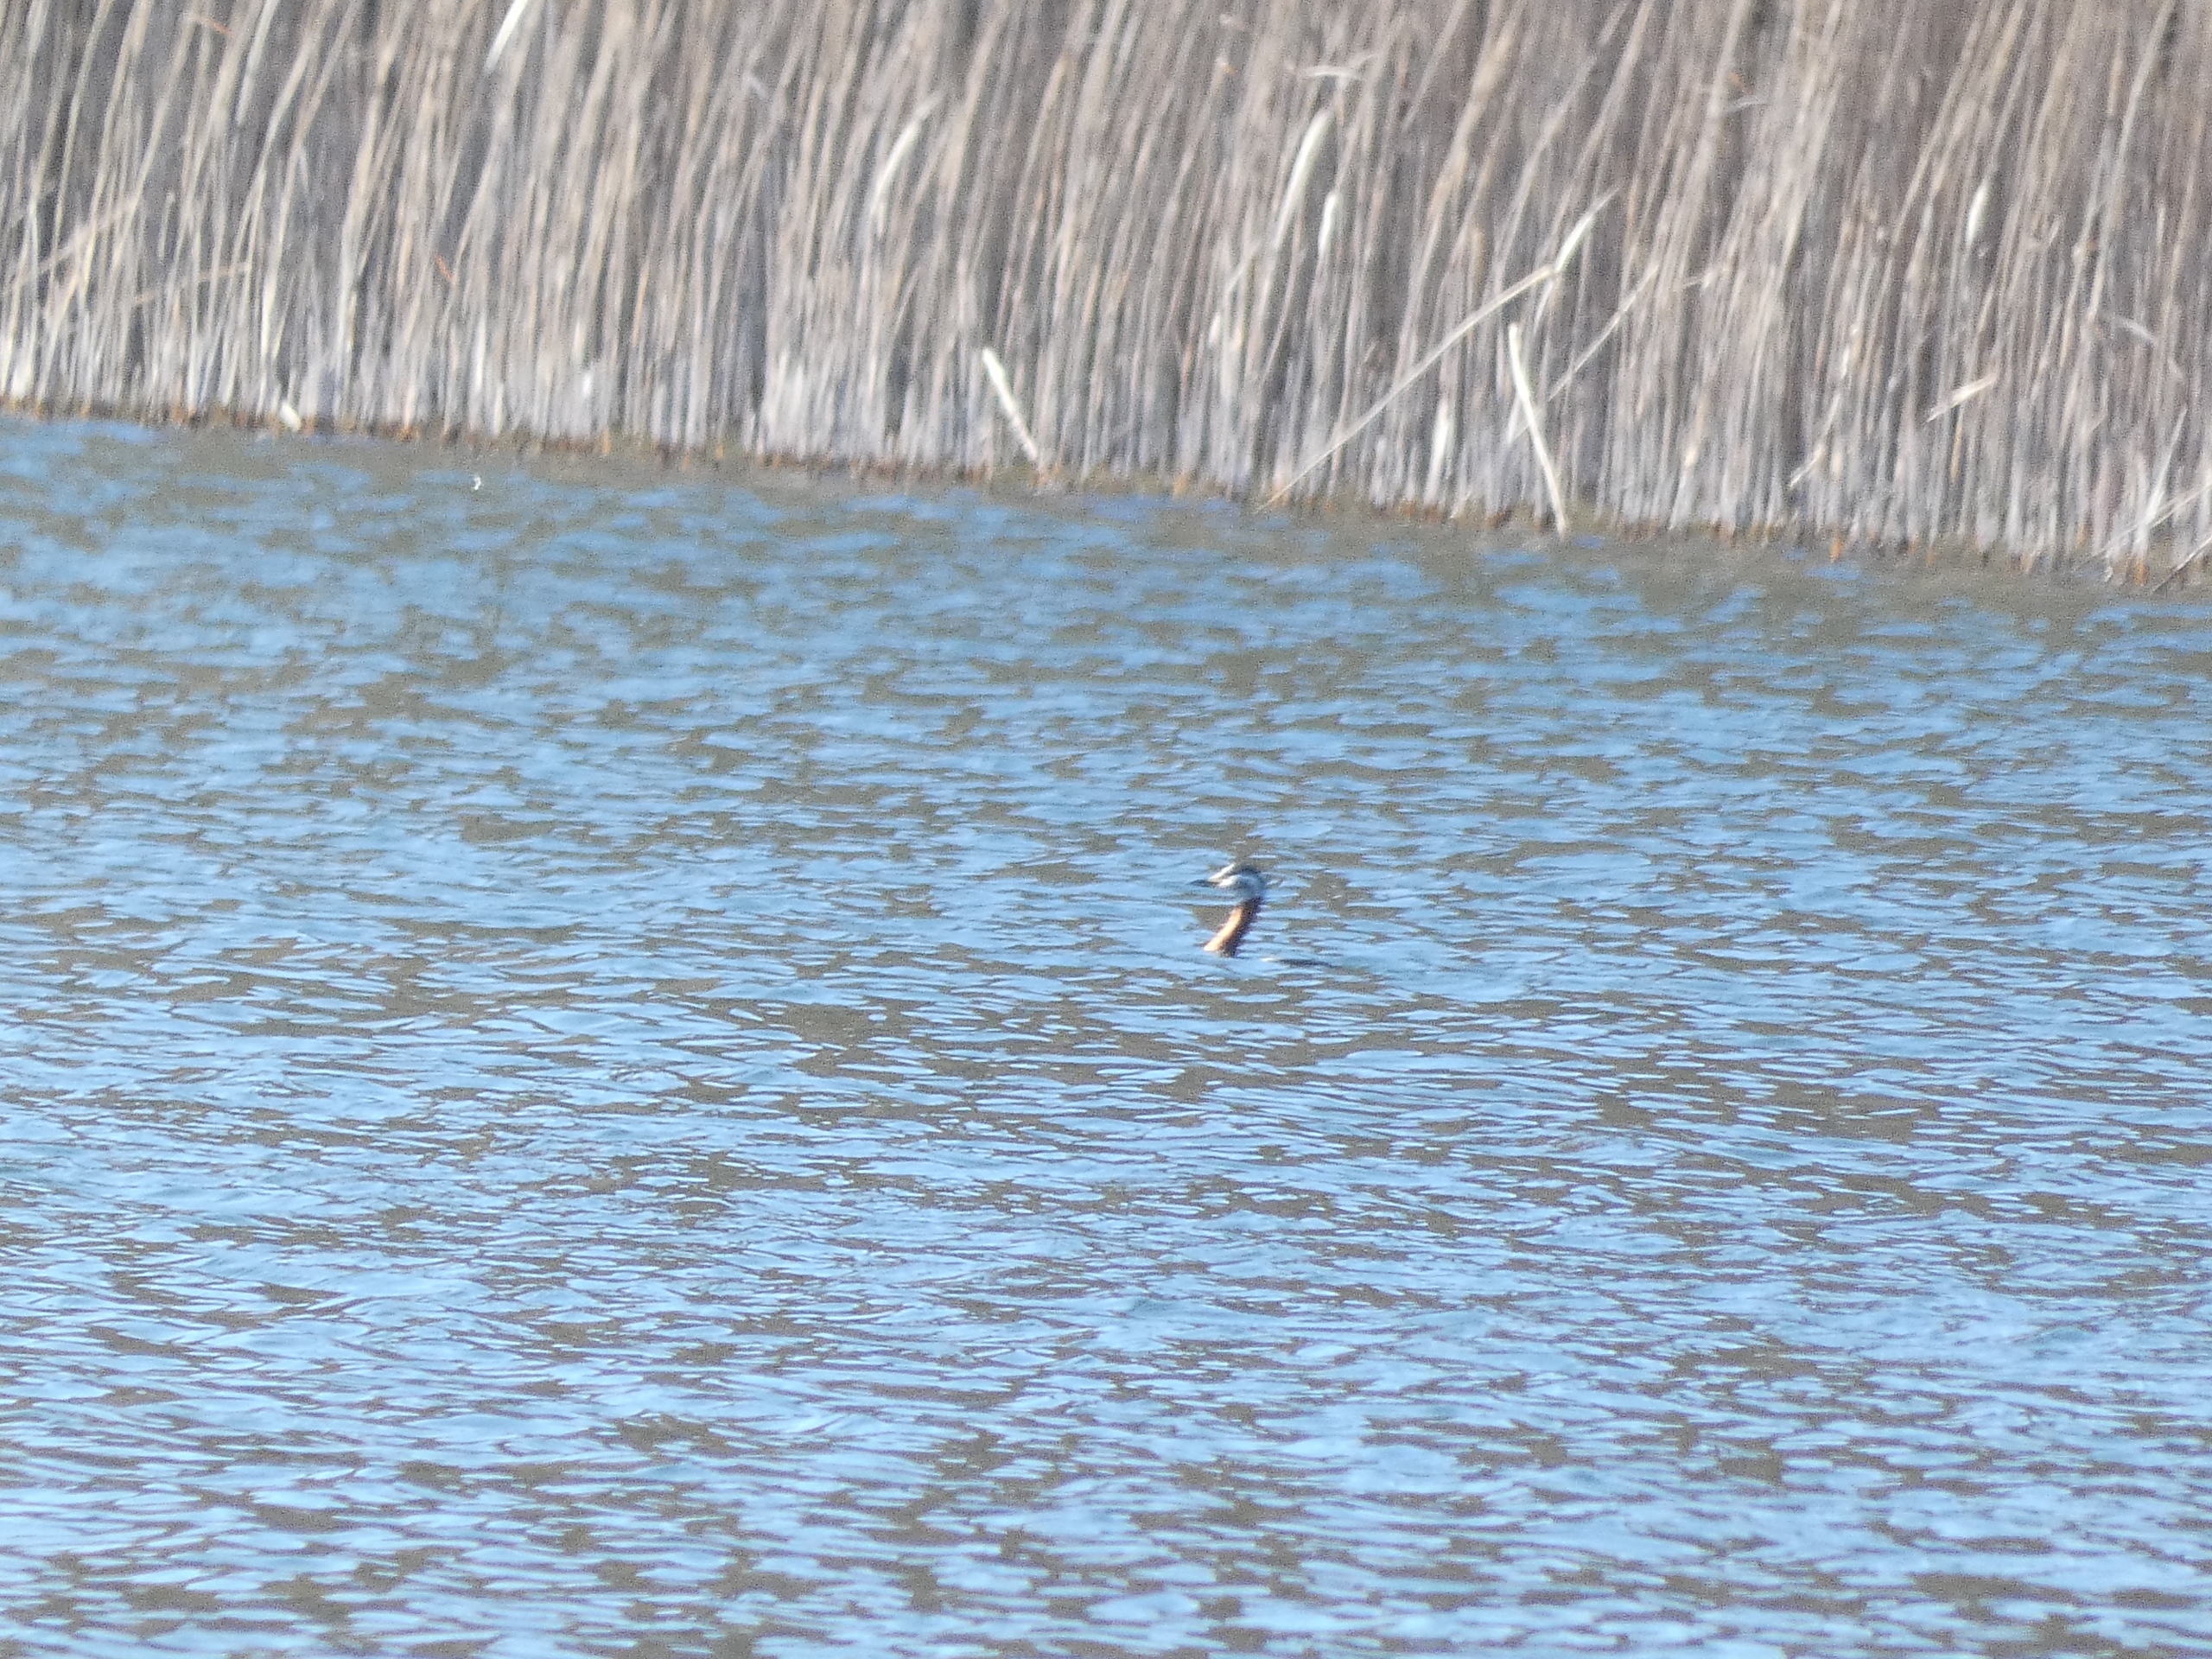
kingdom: Animalia
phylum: Chordata
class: Aves
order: Podicipediformes
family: Podicipedidae
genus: Podiceps
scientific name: Podiceps grisegena
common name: Gråstrubet lappedykker
